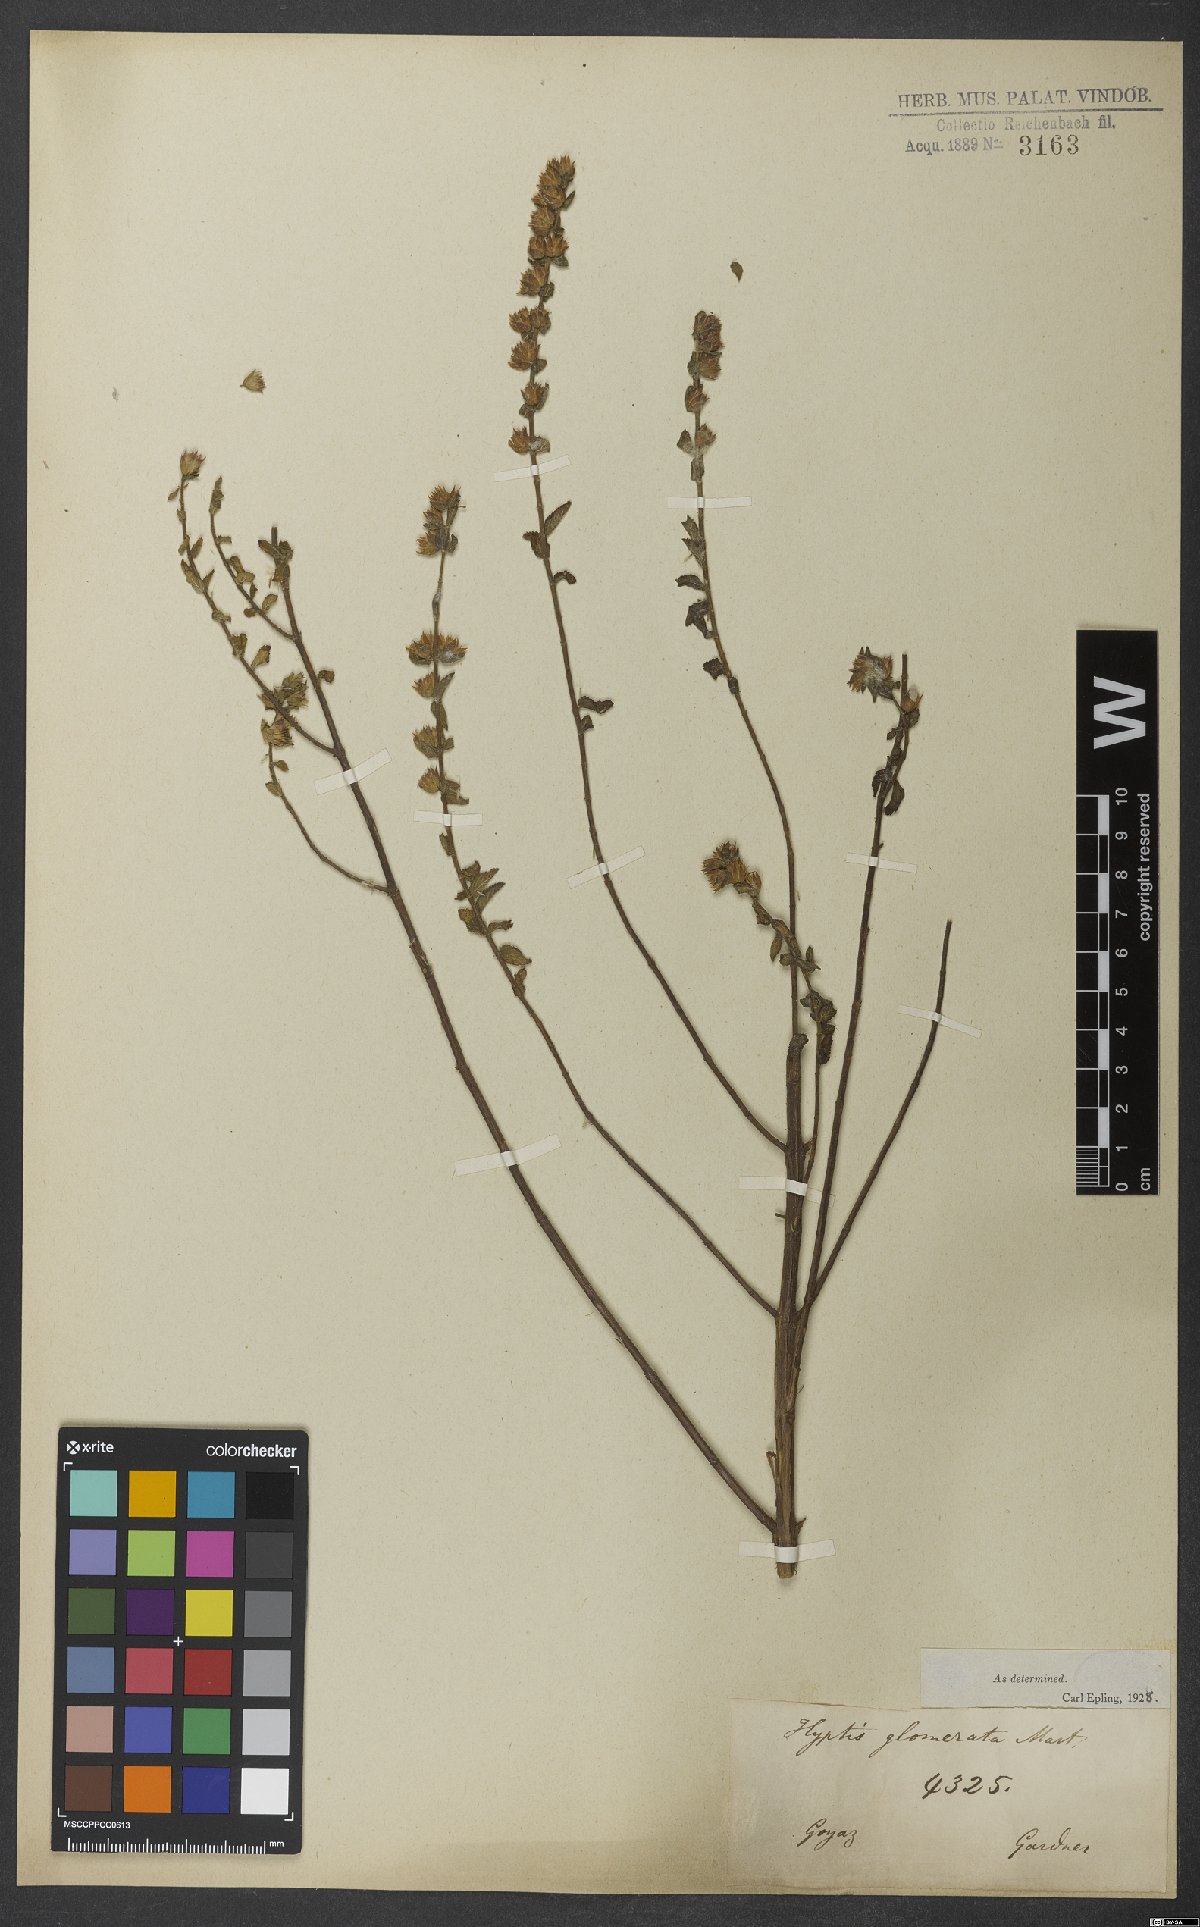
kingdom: Plantae
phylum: Tracheophyta
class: Magnoliopsida
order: Lamiales
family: Lamiaceae
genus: Oocephalus
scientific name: Oocephalus oppositiflorus
